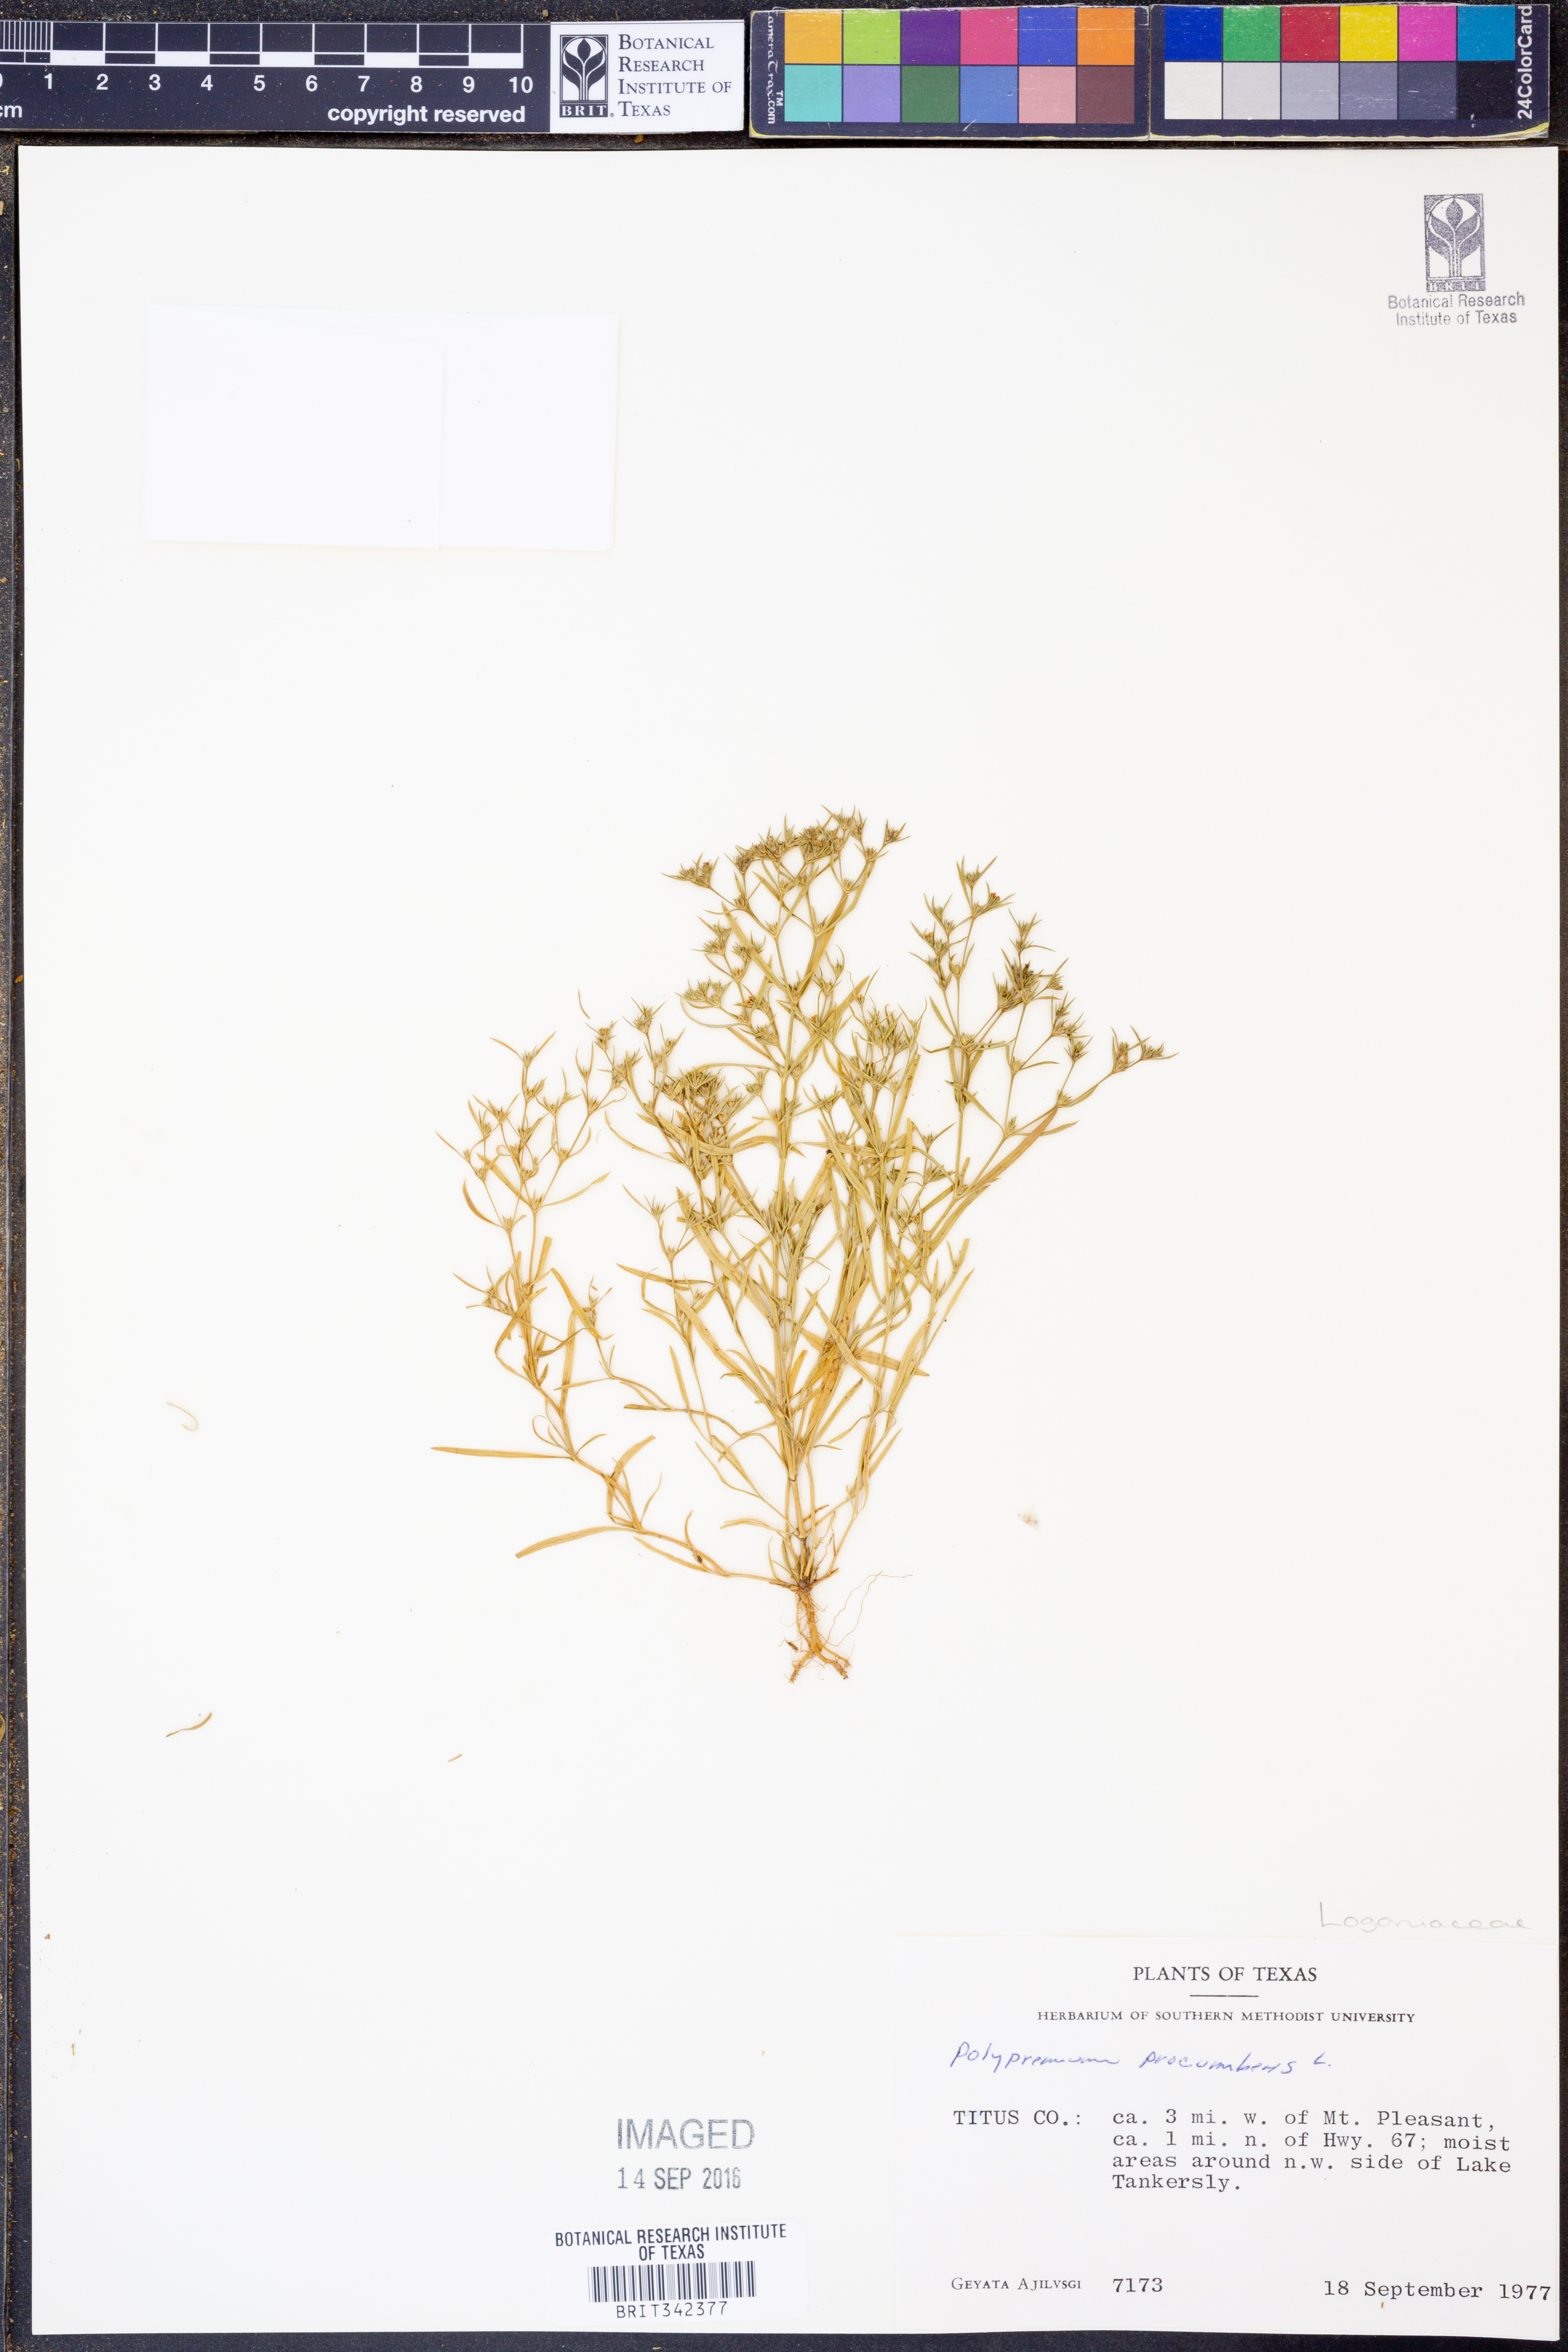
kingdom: Plantae
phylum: Tracheophyta
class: Magnoliopsida
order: Lamiales
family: Tetrachondraceae
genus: Polypremum
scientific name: Polypremum procumbens
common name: Juniper-leaf
